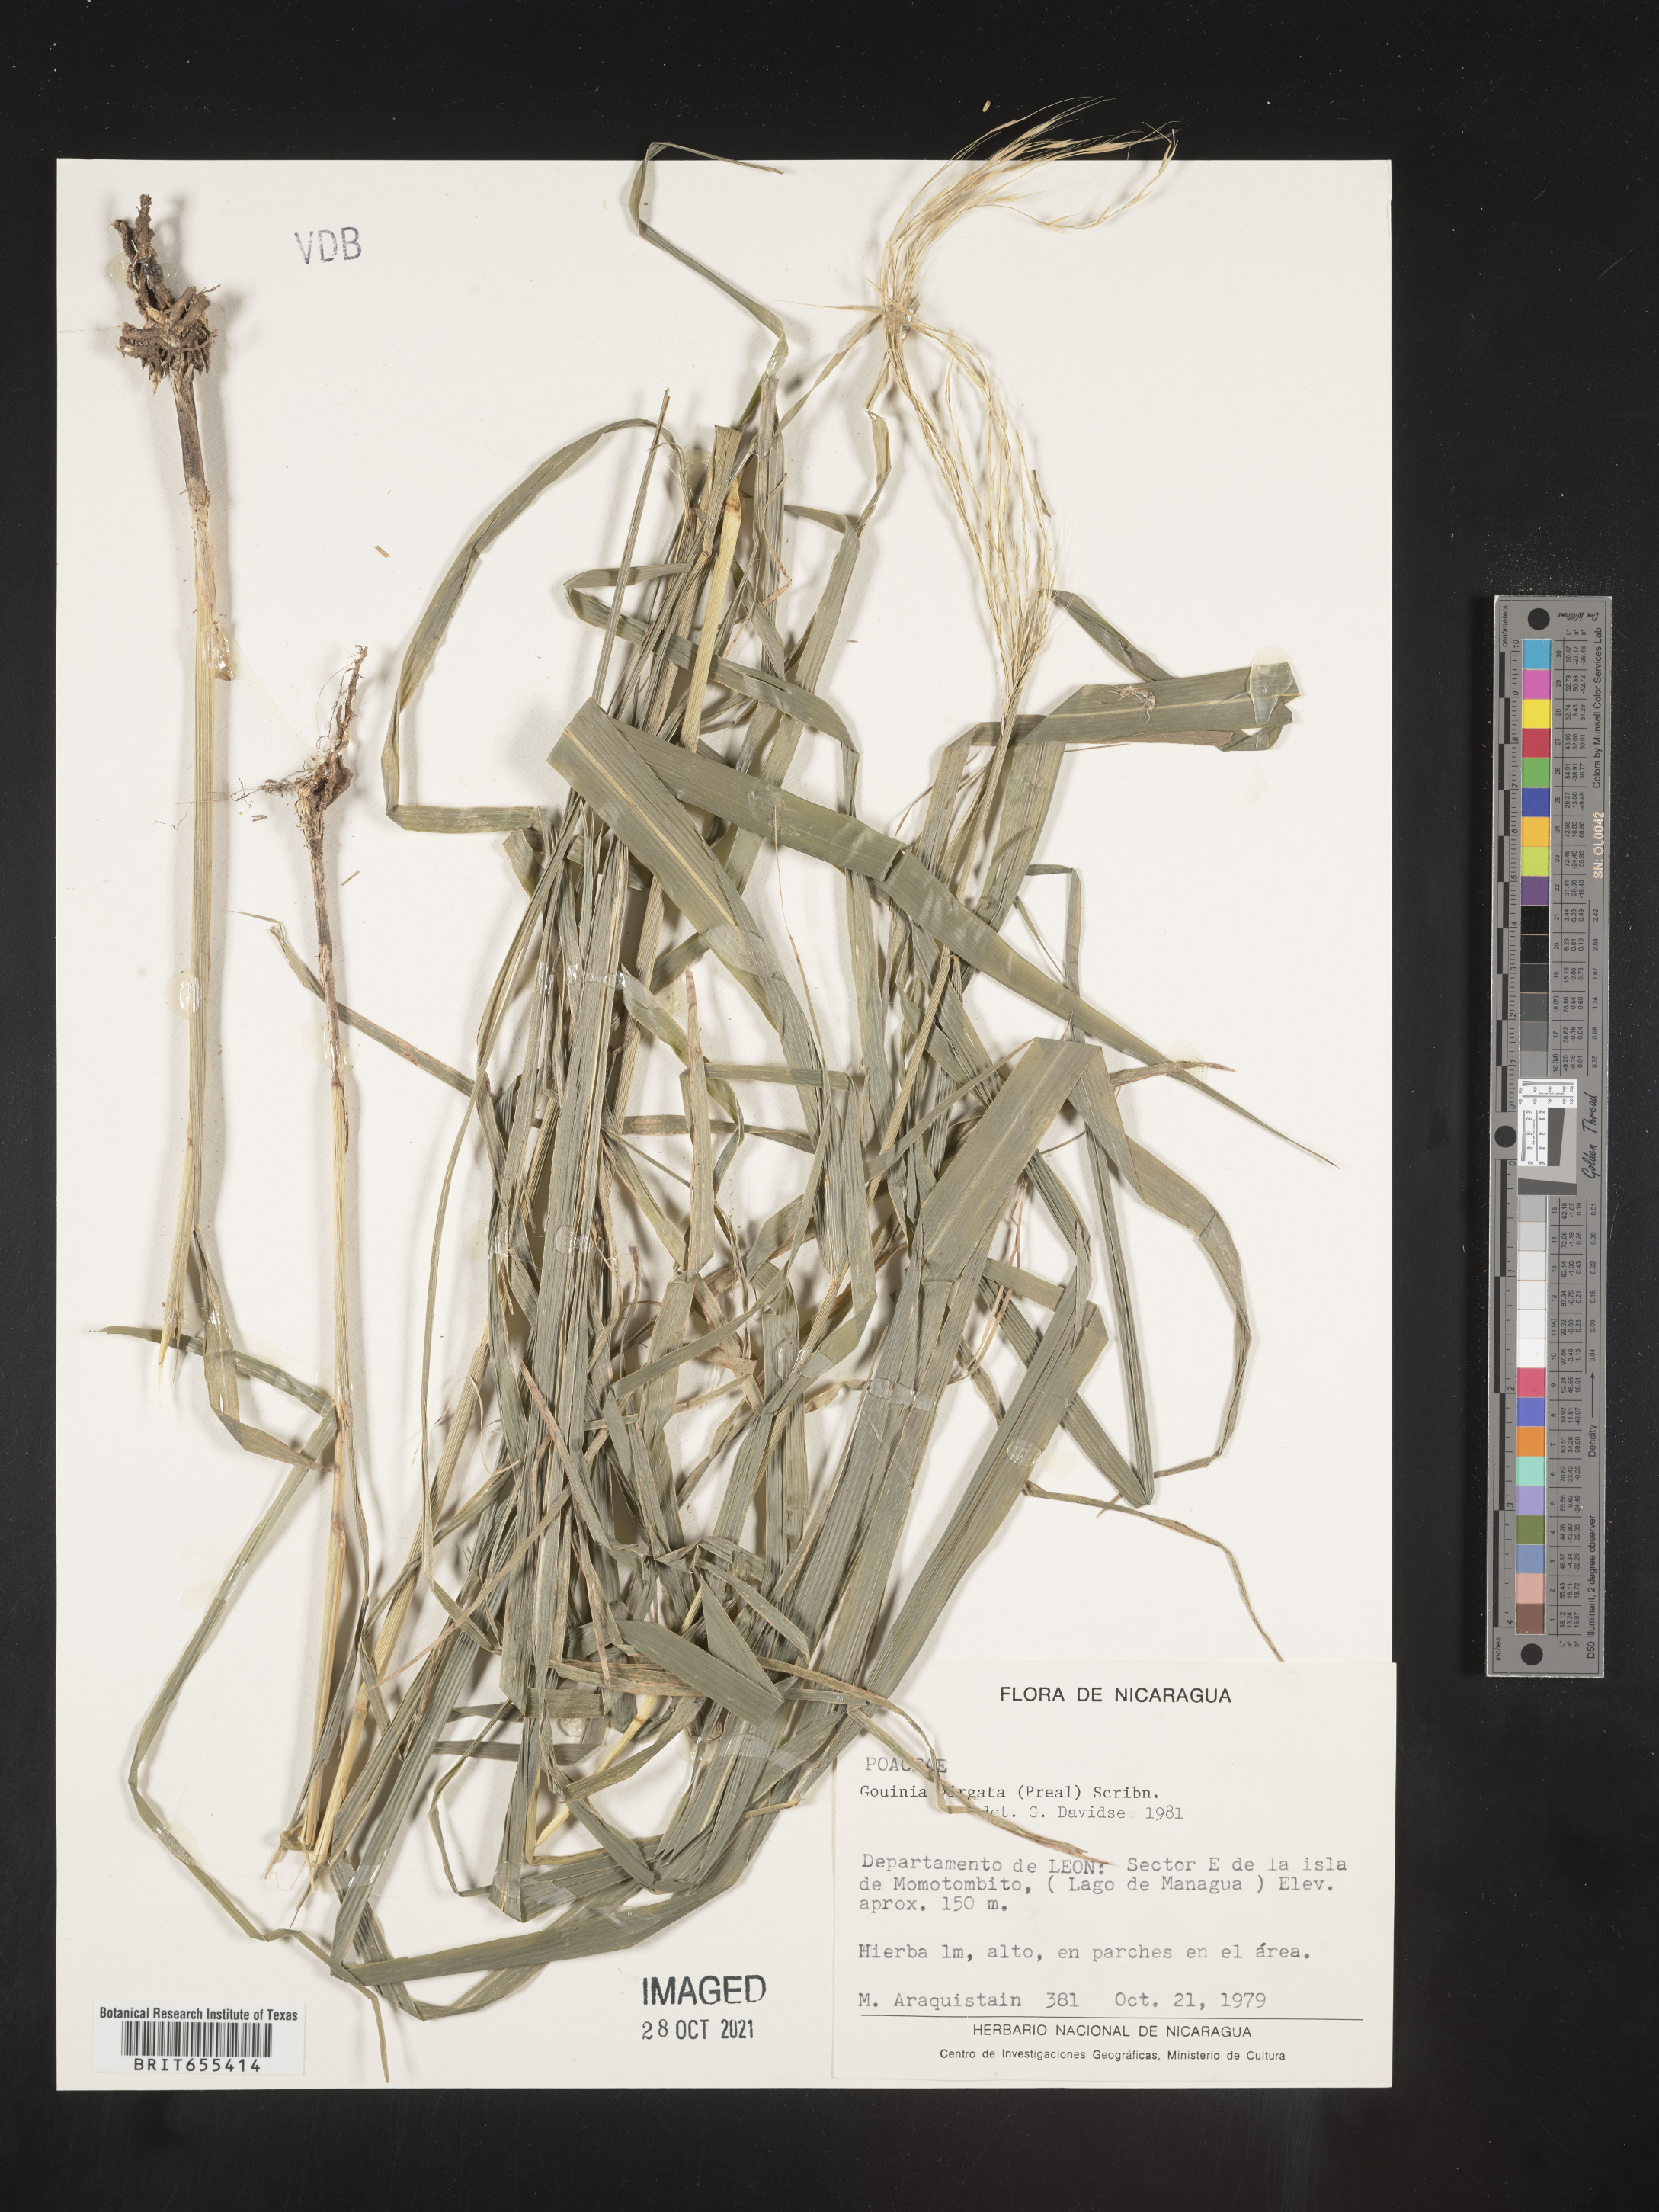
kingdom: Plantae
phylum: Tracheophyta
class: Liliopsida
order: Poales
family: Poaceae
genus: Gouinia
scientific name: Gouinia
